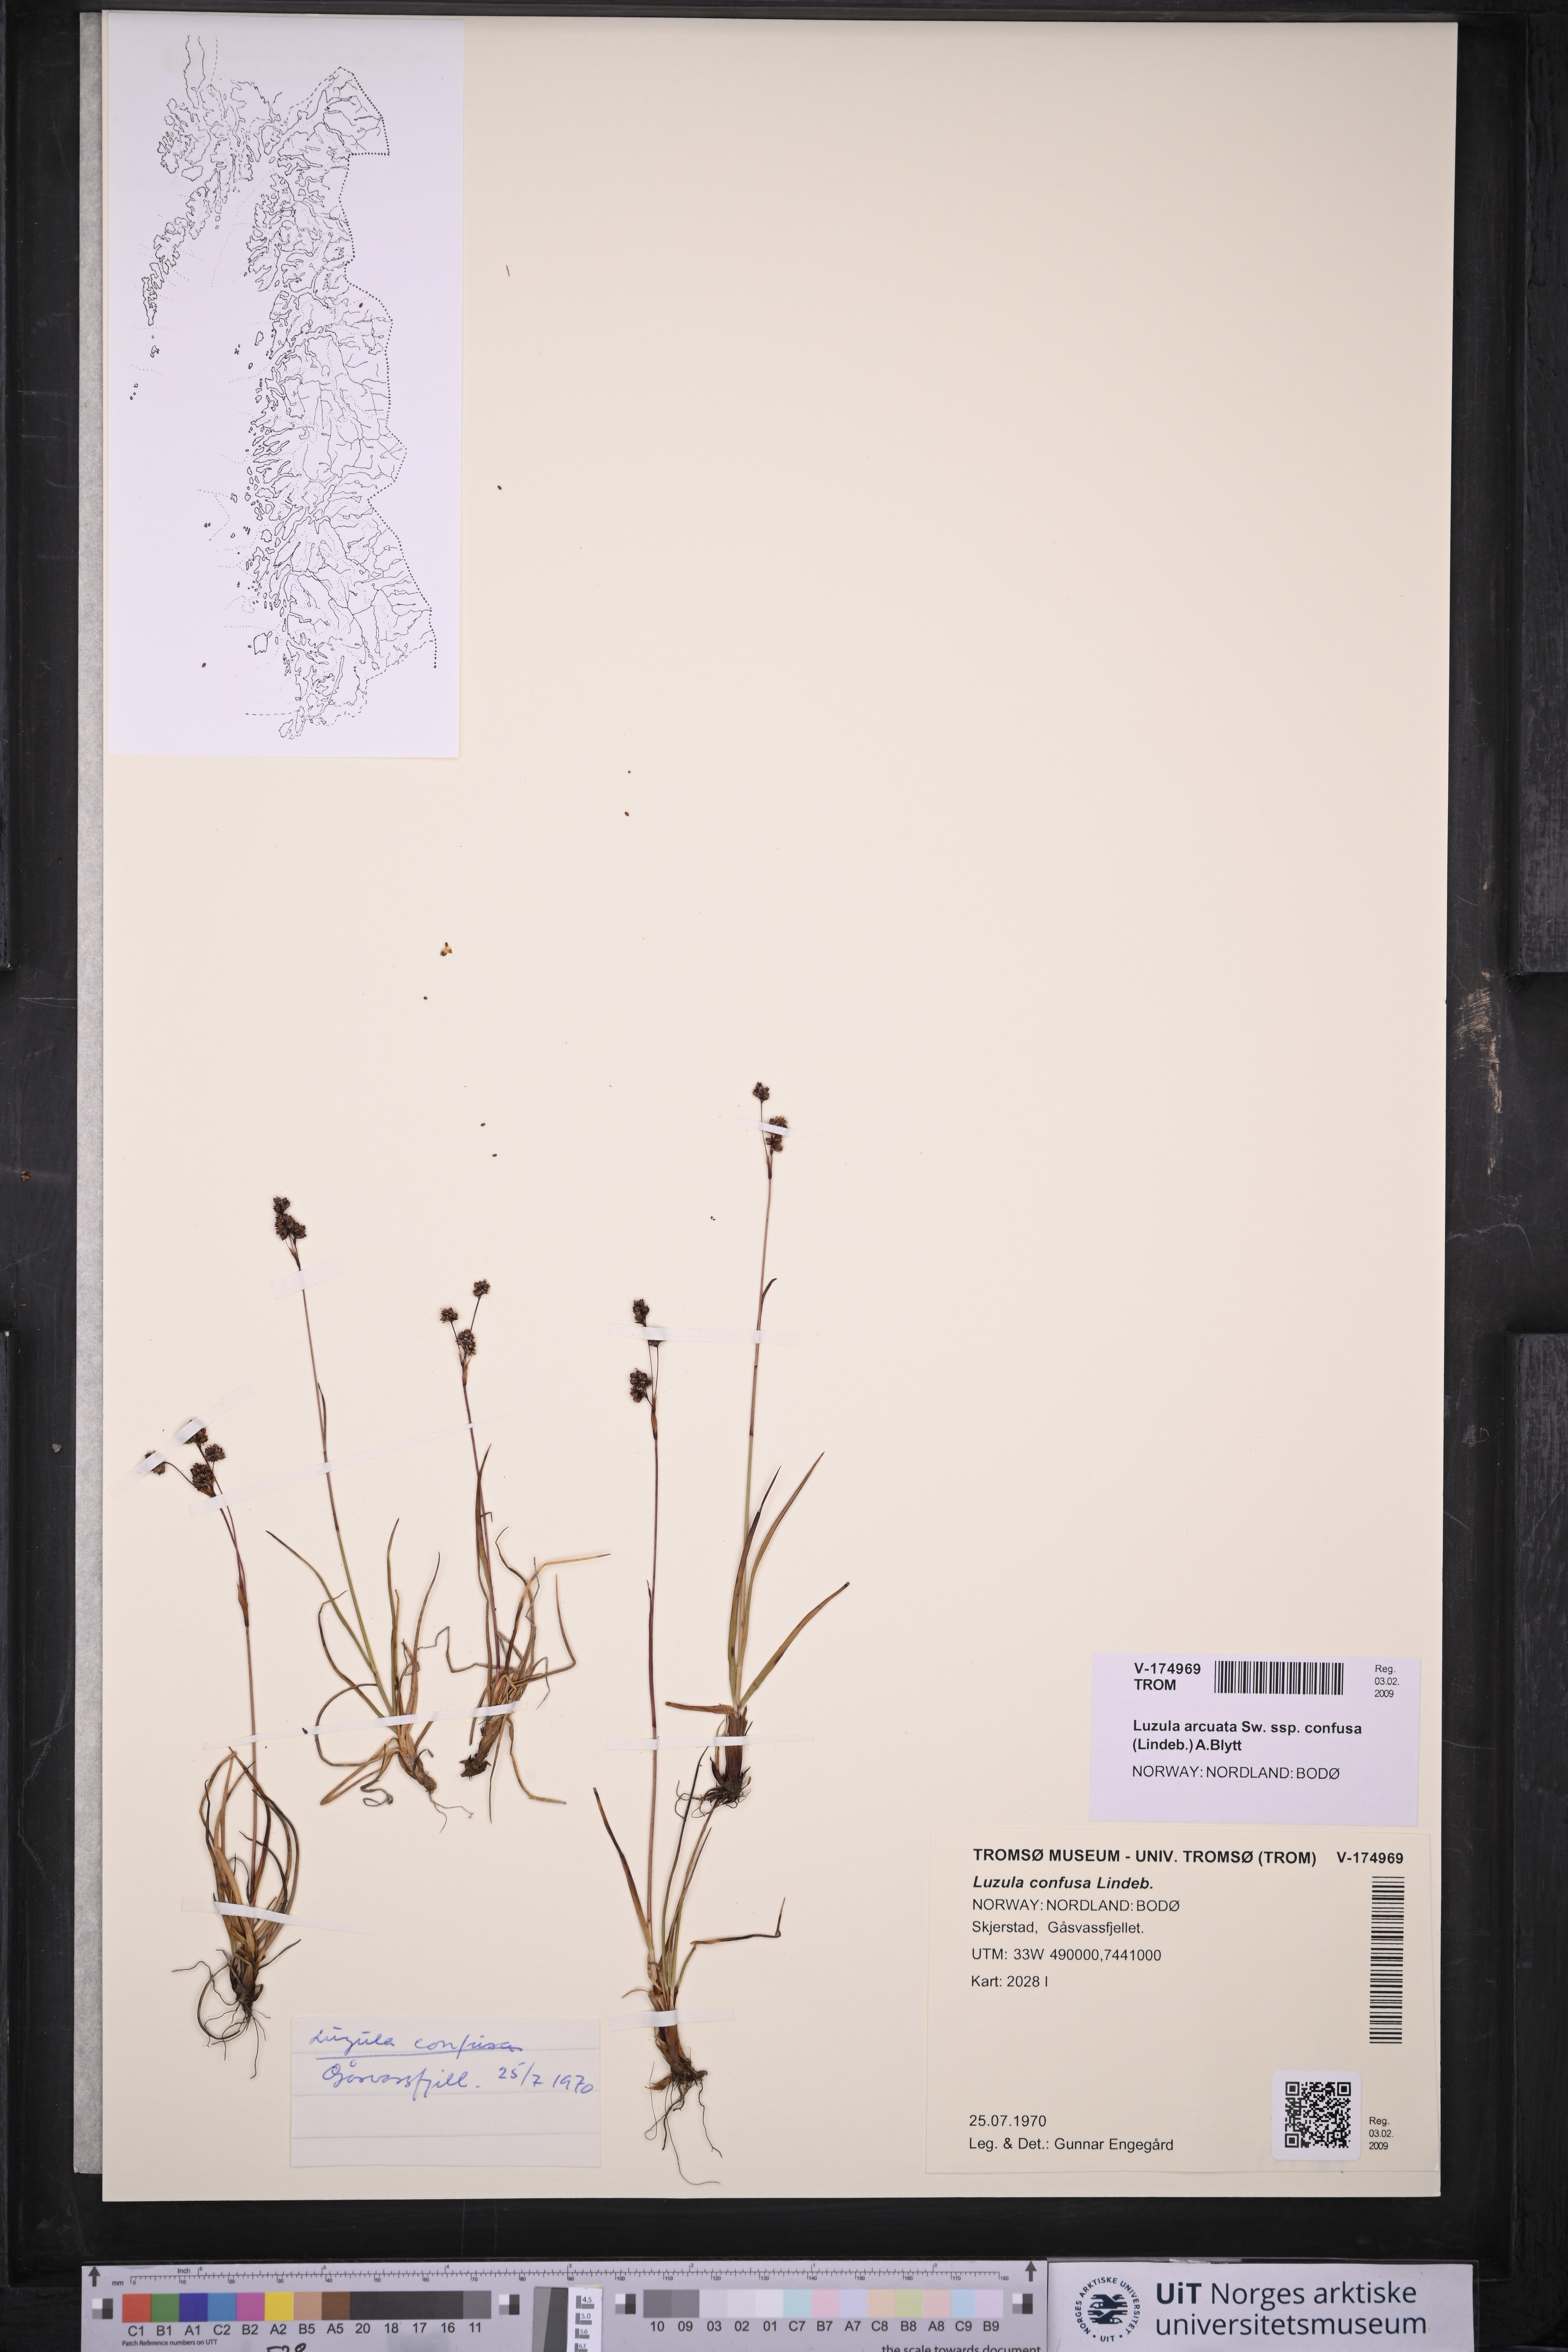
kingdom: Plantae
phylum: Tracheophyta
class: Liliopsida
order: Poales
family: Juncaceae
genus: Luzula
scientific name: Luzula confusa
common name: Northern wood rush
